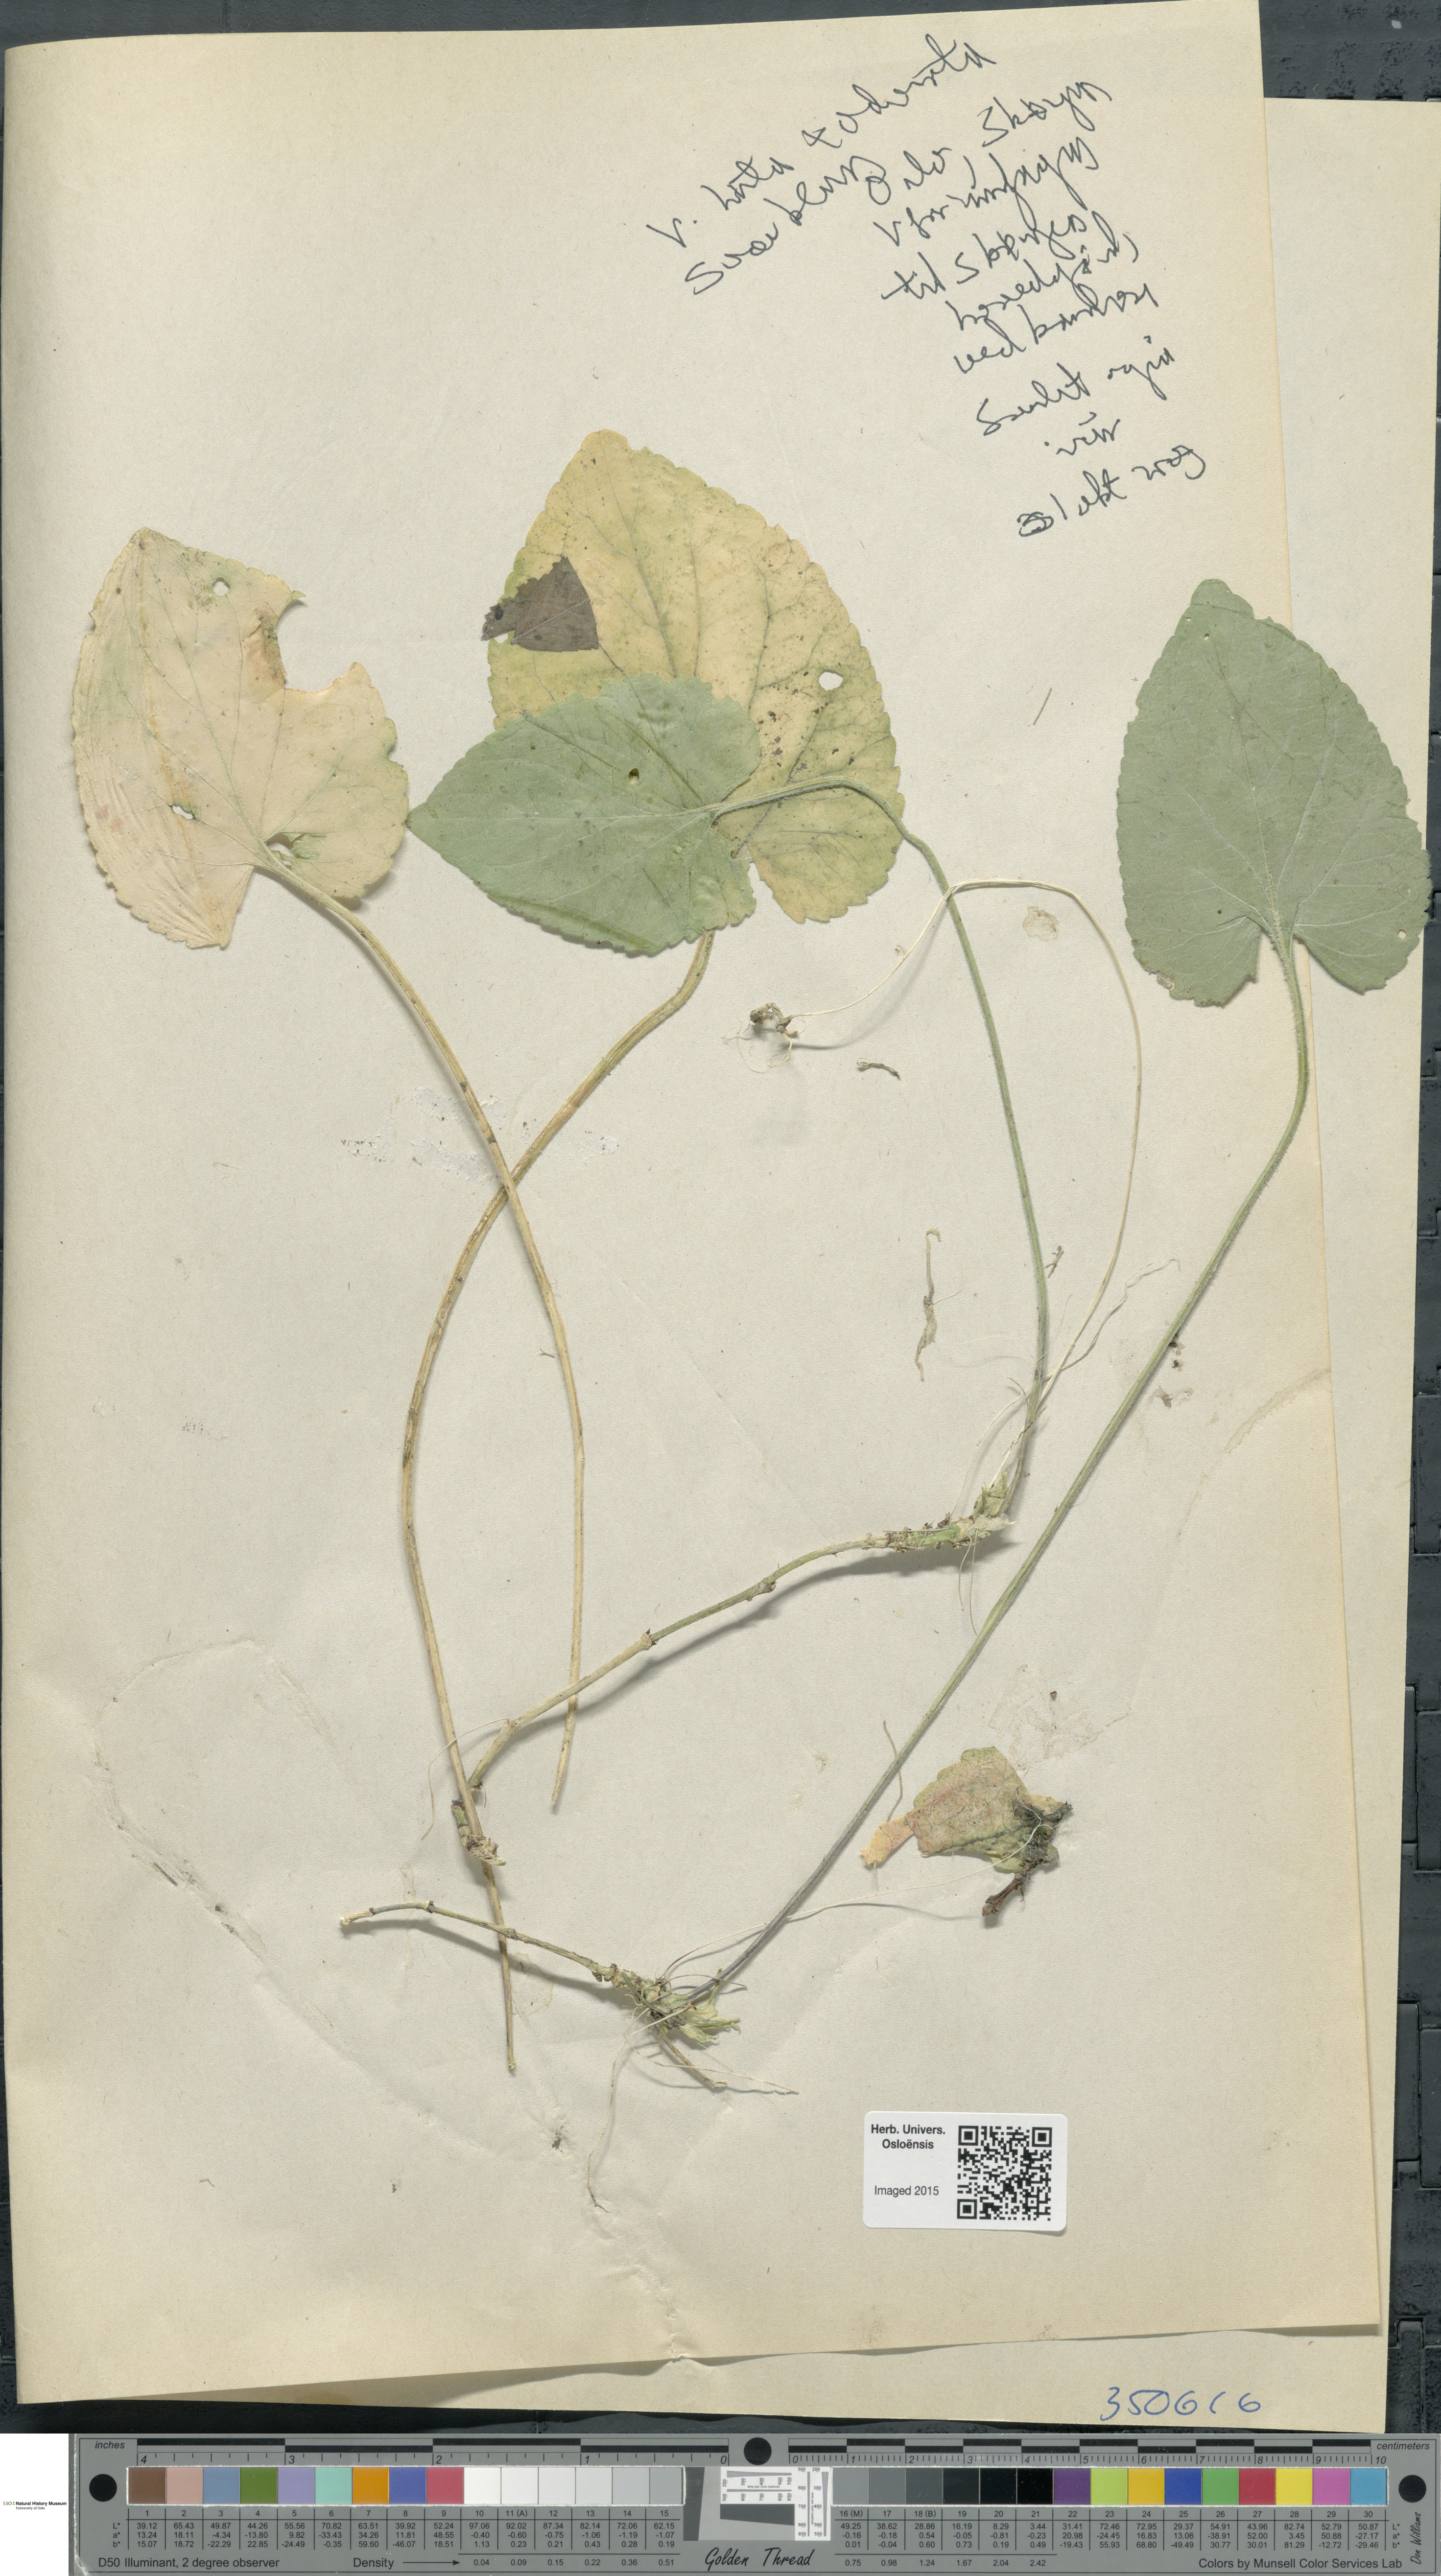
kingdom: Plantae
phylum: Tracheophyta
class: Magnoliopsida
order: Malpighiales
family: Violaceae
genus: Viola
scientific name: Viola
